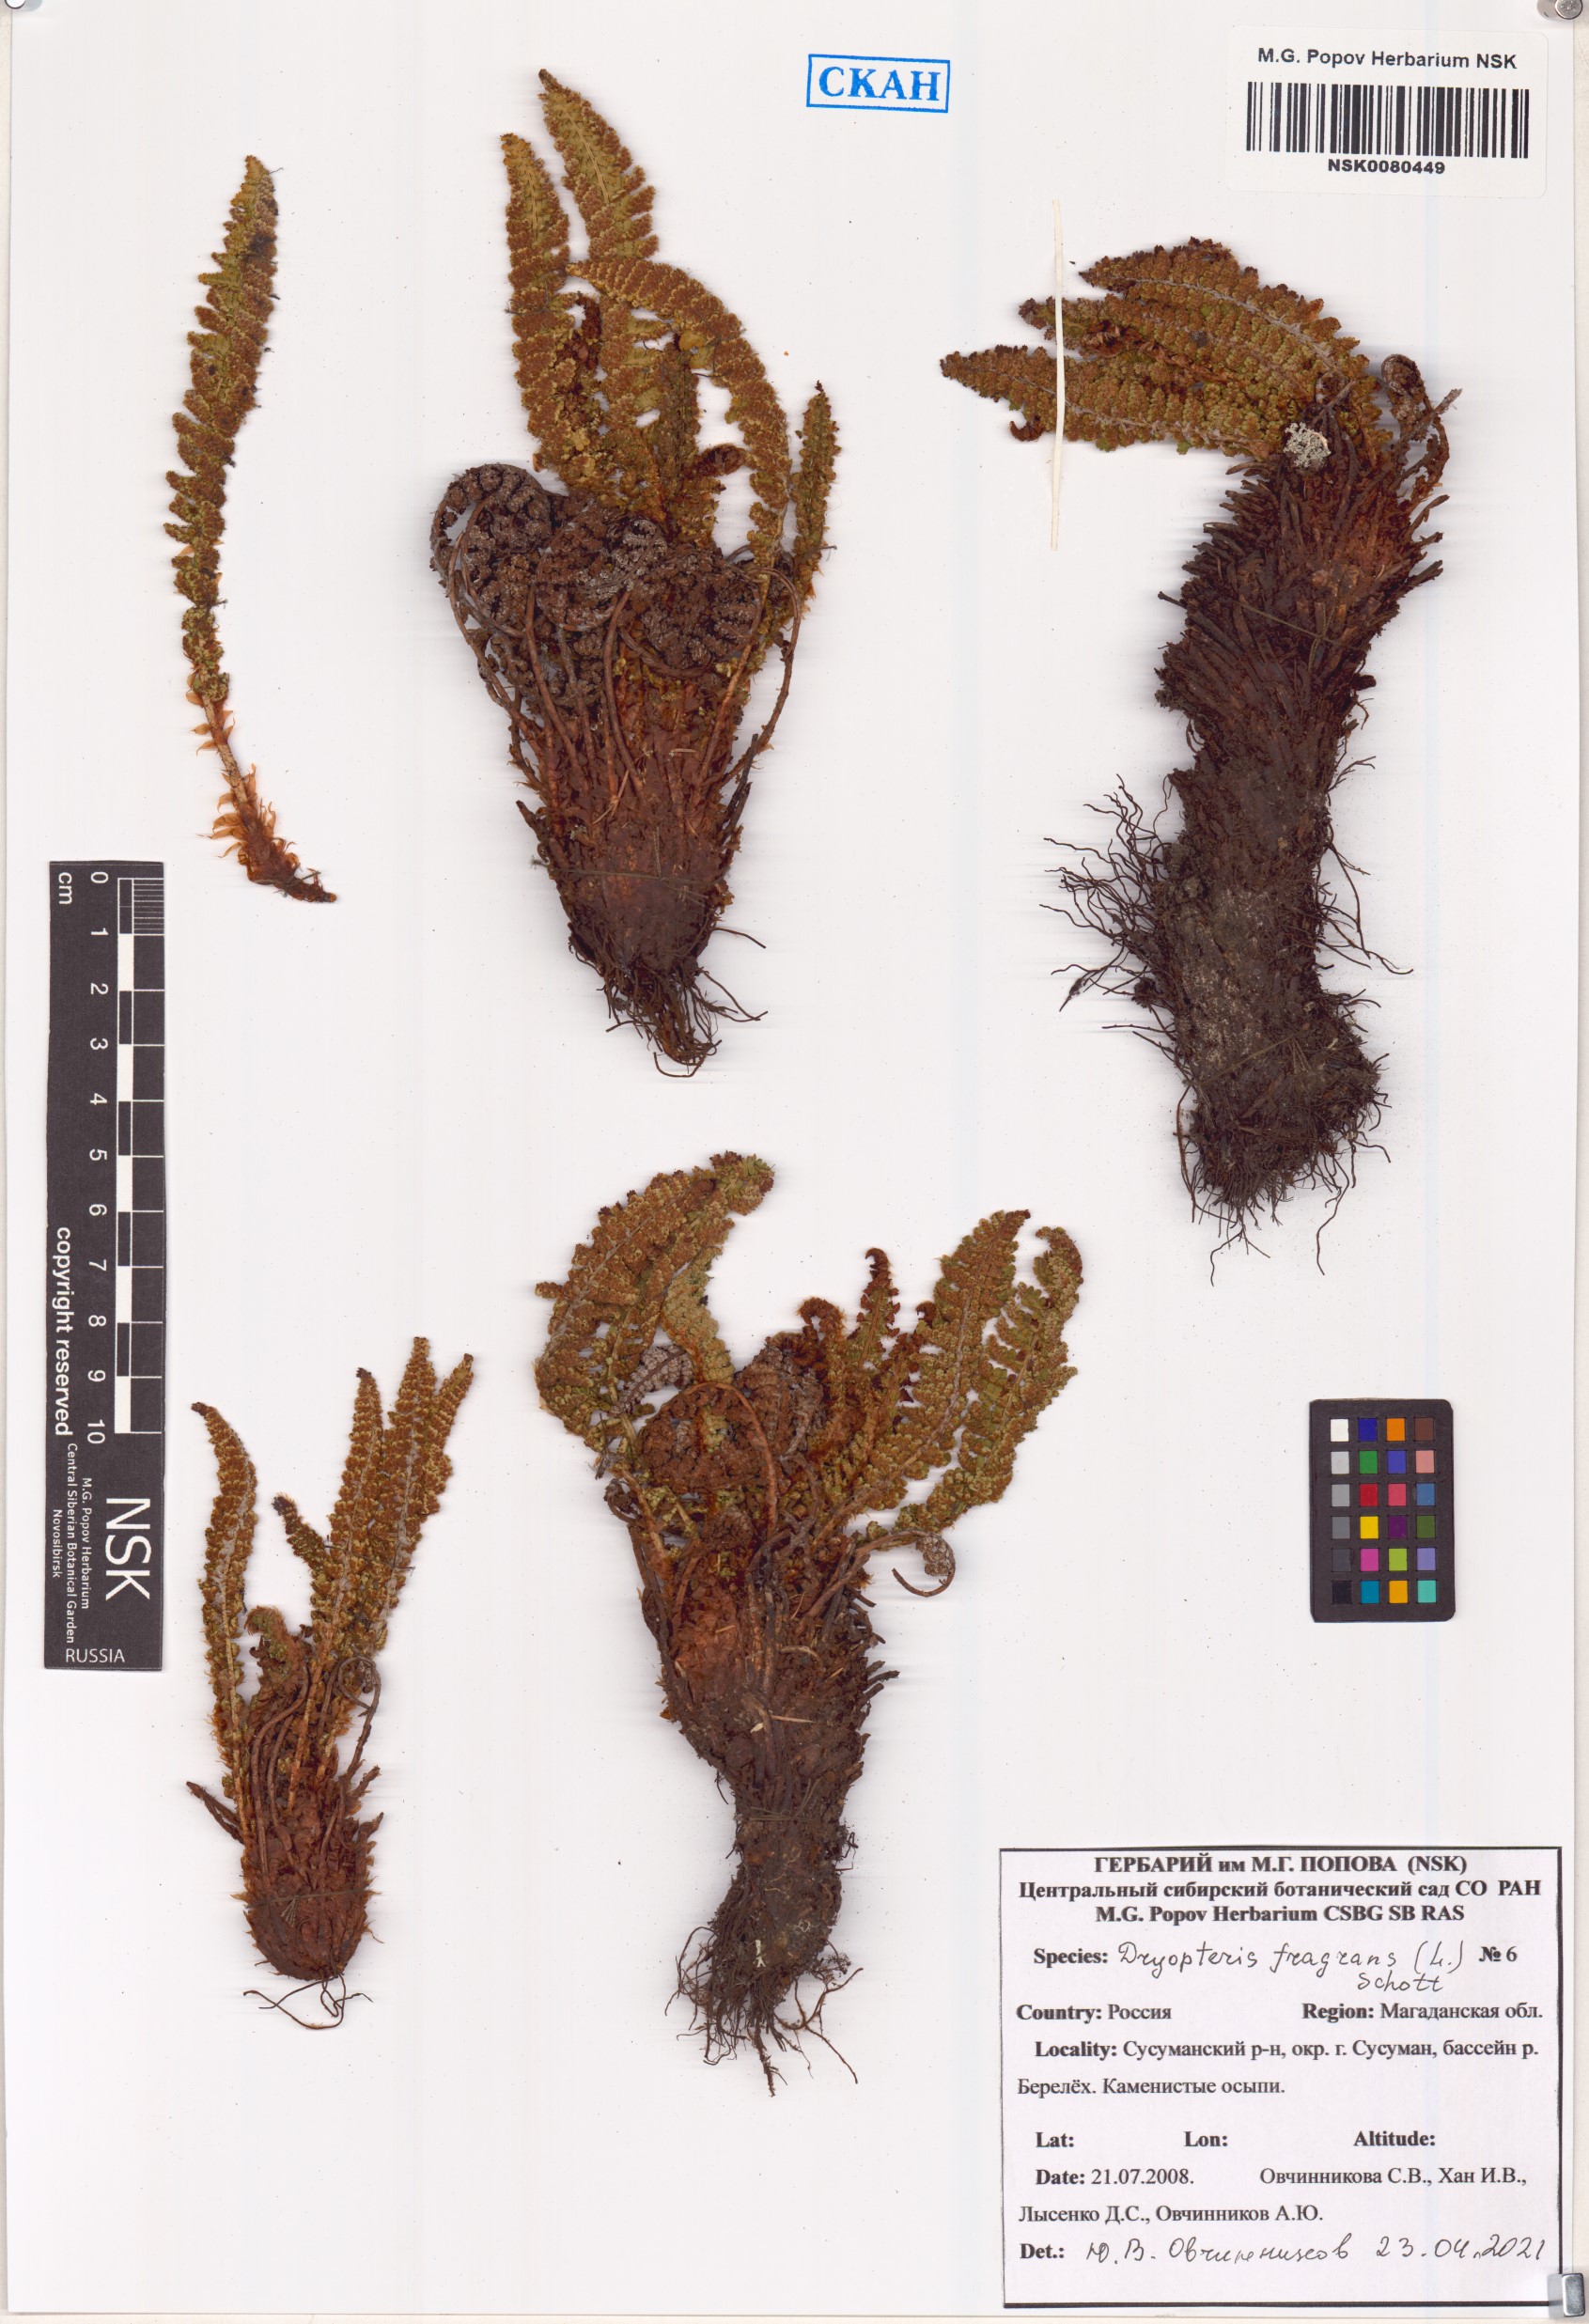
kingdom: Plantae
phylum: Tracheophyta
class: Polypodiopsida
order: Polypodiales
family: Dryopteridaceae
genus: Dryopteris
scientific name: Dryopteris fragrans
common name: Fragrant wood fern
